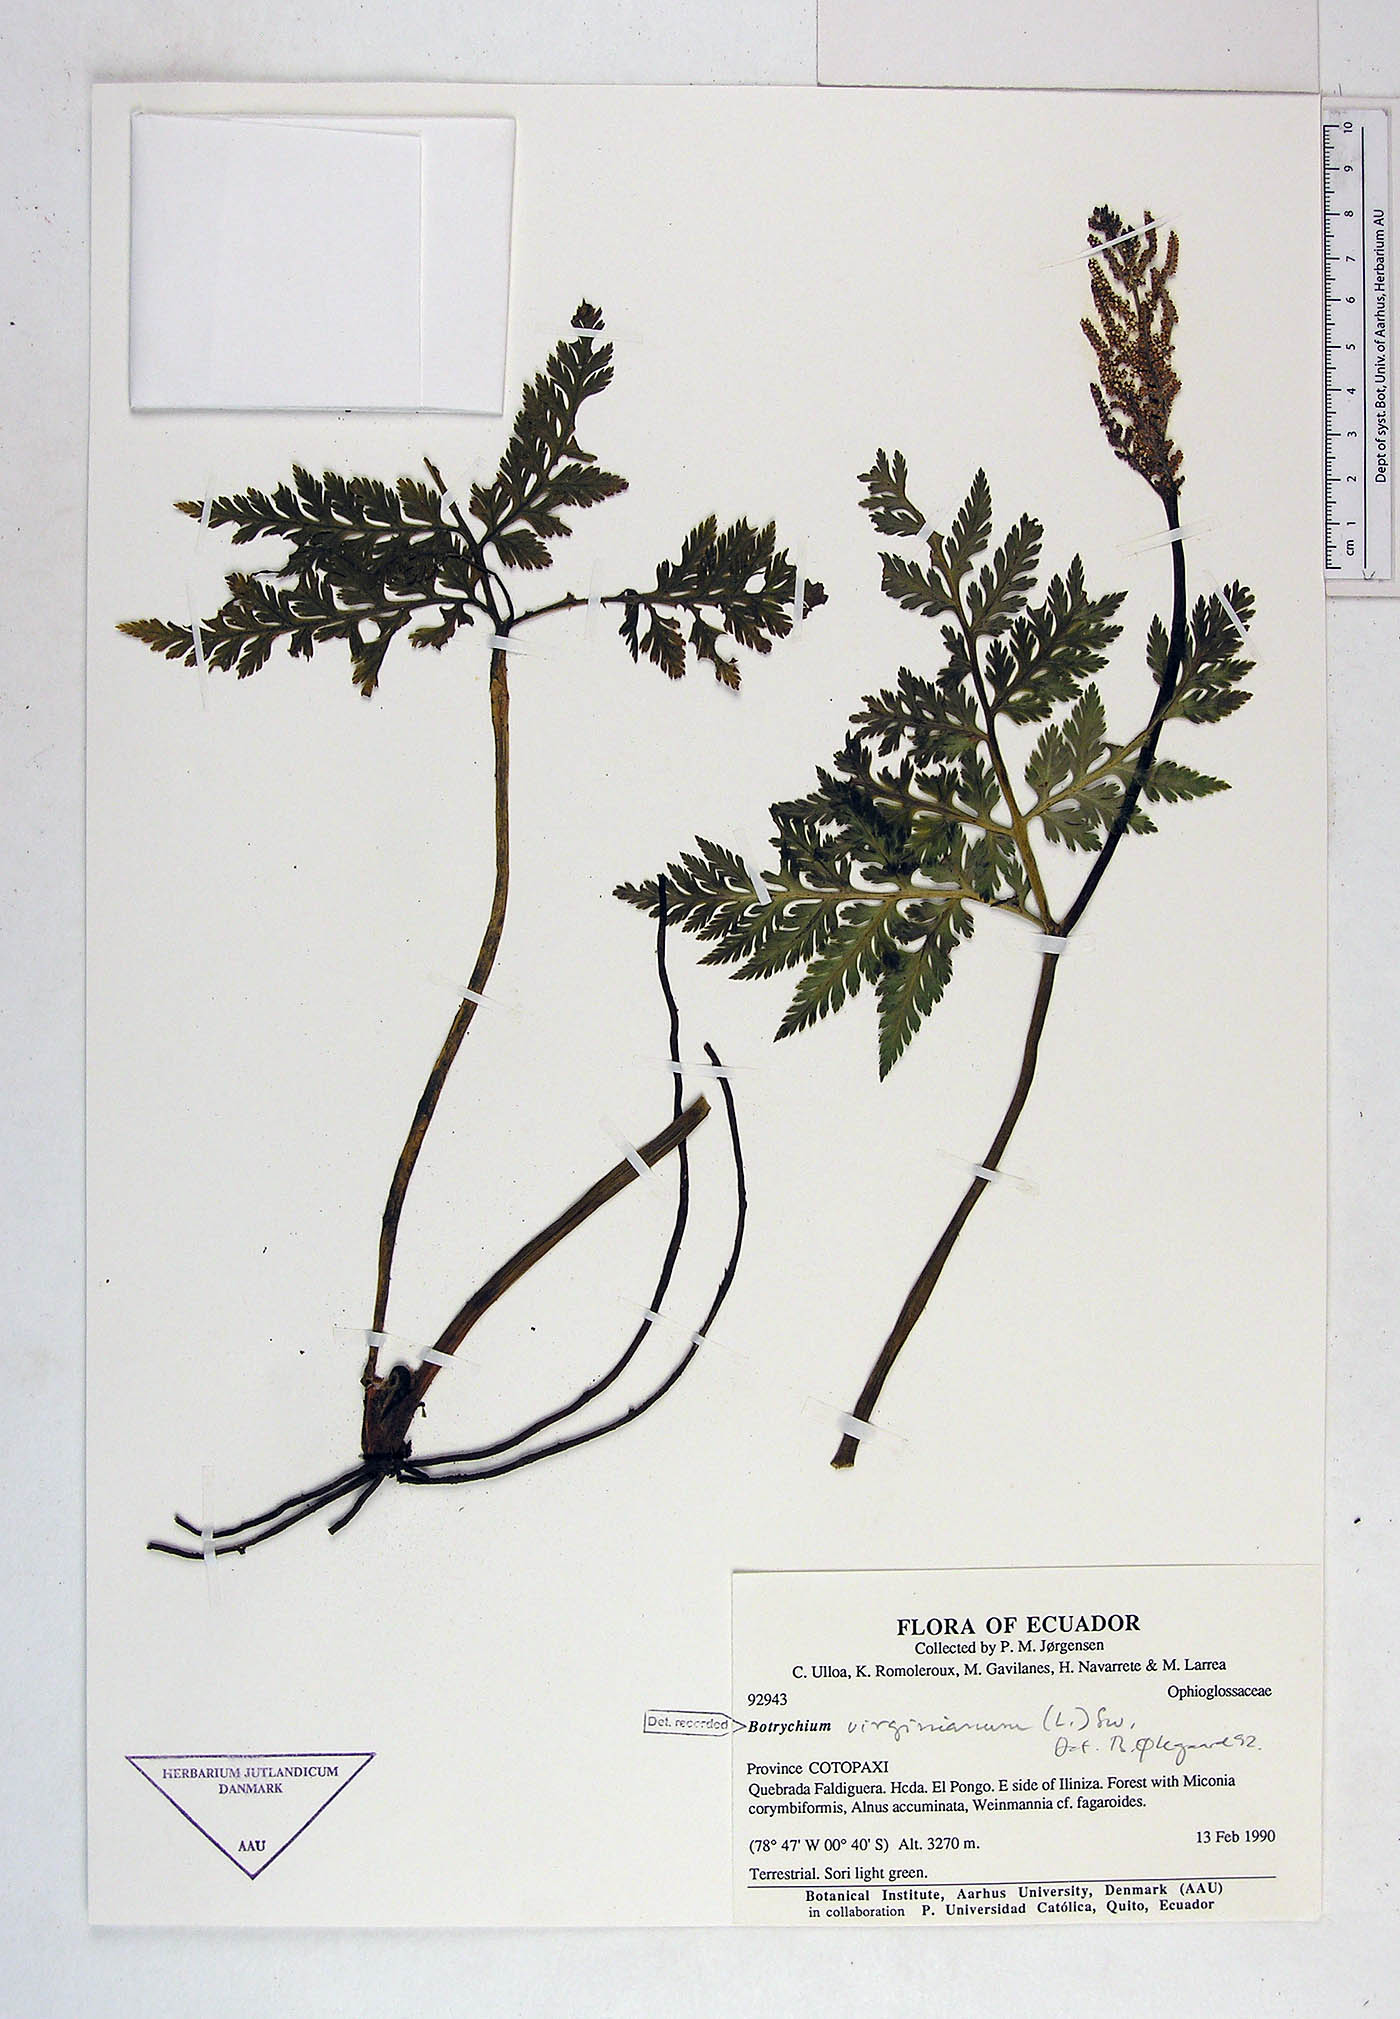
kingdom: Plantae
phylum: Tracheophyta
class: Polypodiopsida
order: Ophioglossales
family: Ophioglossaceae
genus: Botrypus
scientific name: Botrypus virginianus
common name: Common grapefern
